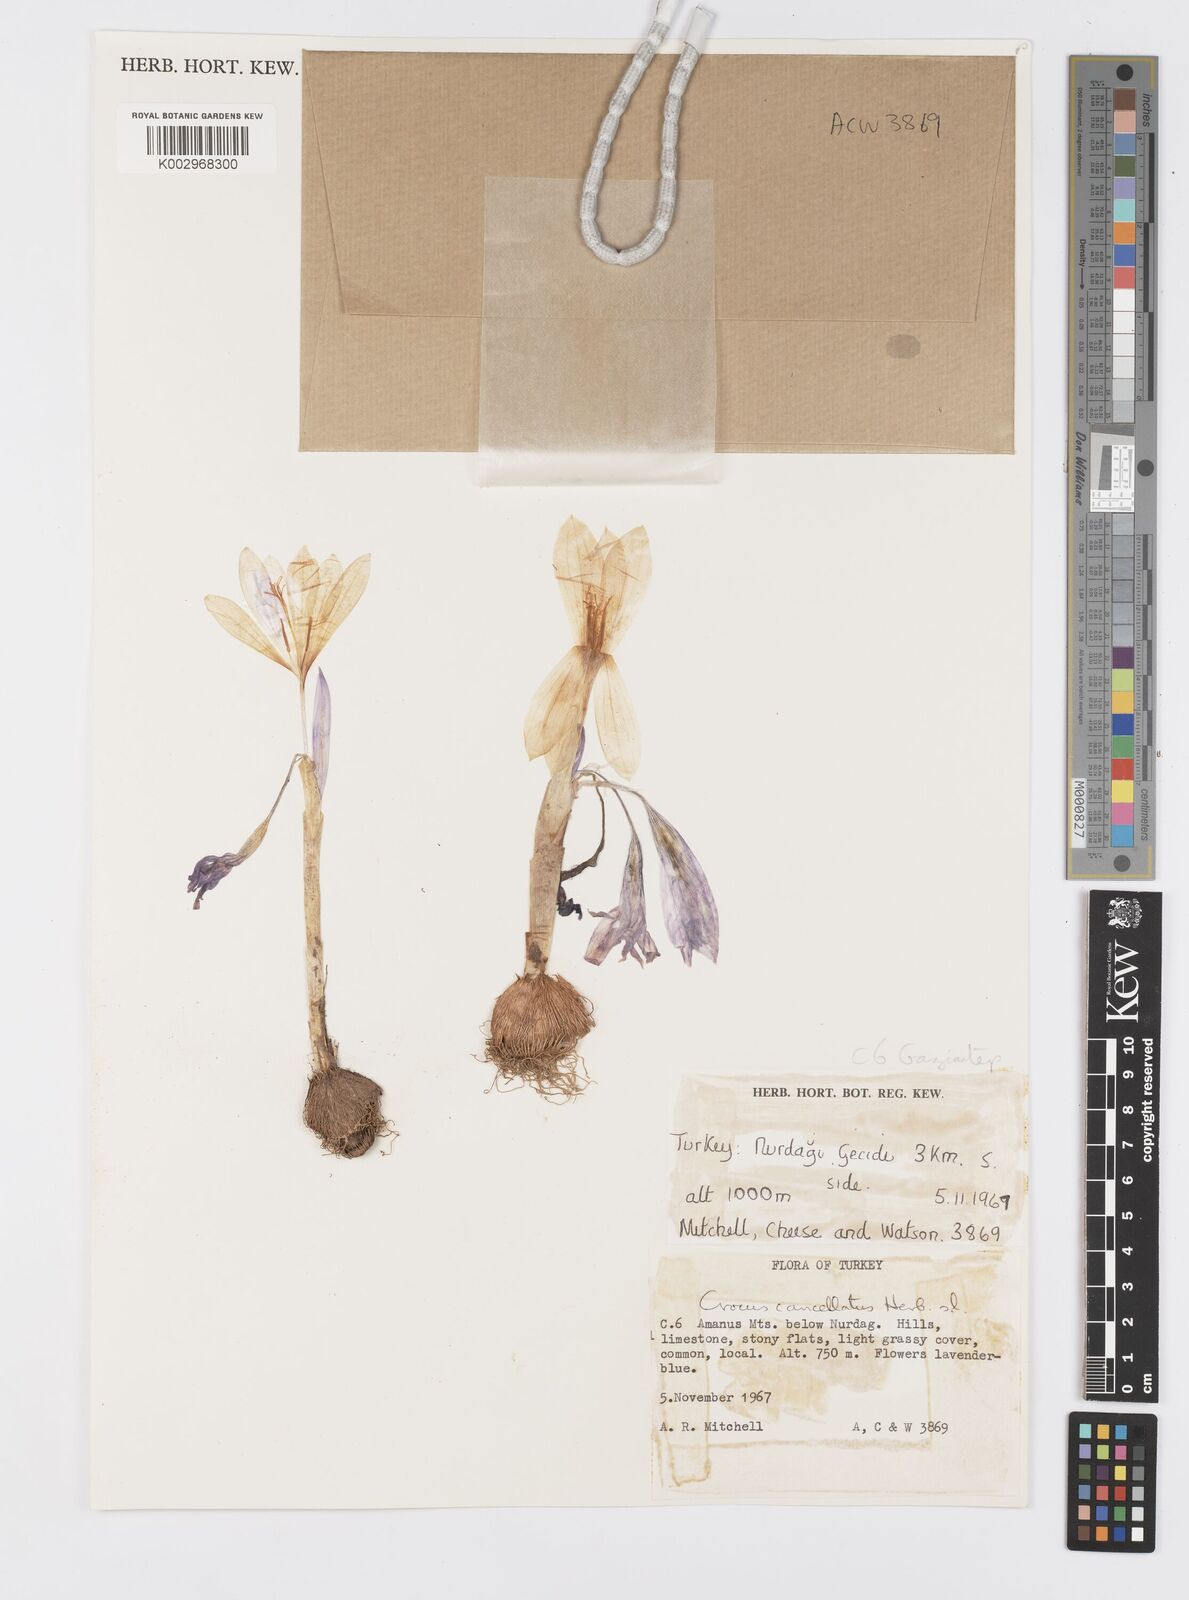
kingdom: Plantae
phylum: Tracheophyta
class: Liliopsida
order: Asparagales
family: Iridaceae
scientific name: Iridaceae
